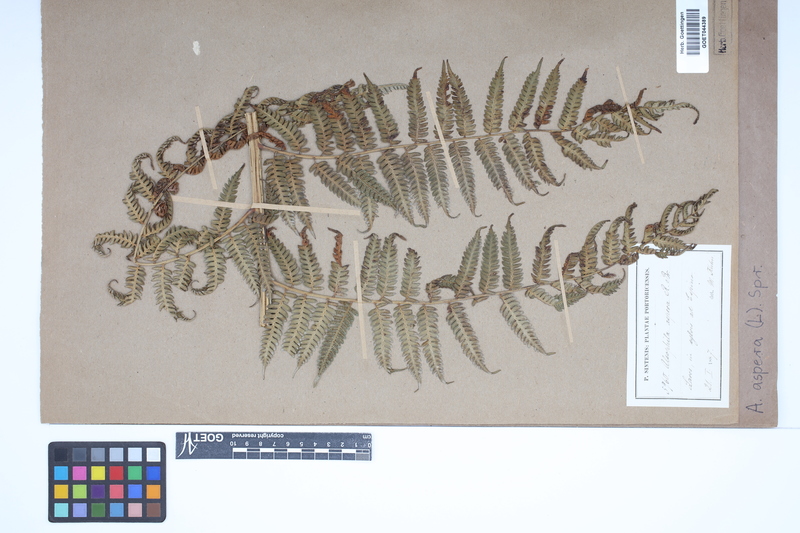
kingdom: Plantae
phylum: Tracheophyta
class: Polypodiopsida
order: Cyatheales
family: Cyatheaceae
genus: Cyathea
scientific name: Cyathea aspera
